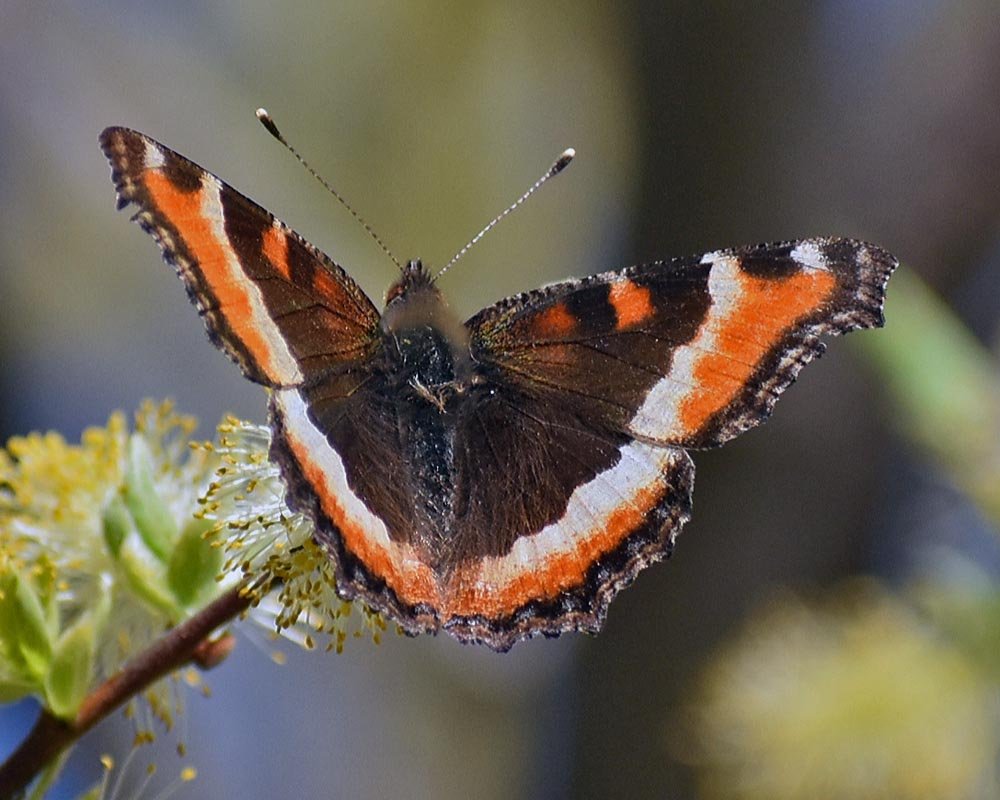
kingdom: Animalia
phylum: Arthropoda
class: Insecta
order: Lepidoptera
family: Nymphalidae
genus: Aglais
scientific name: Aglais milberti
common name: Milbert's Tortoiseshell
